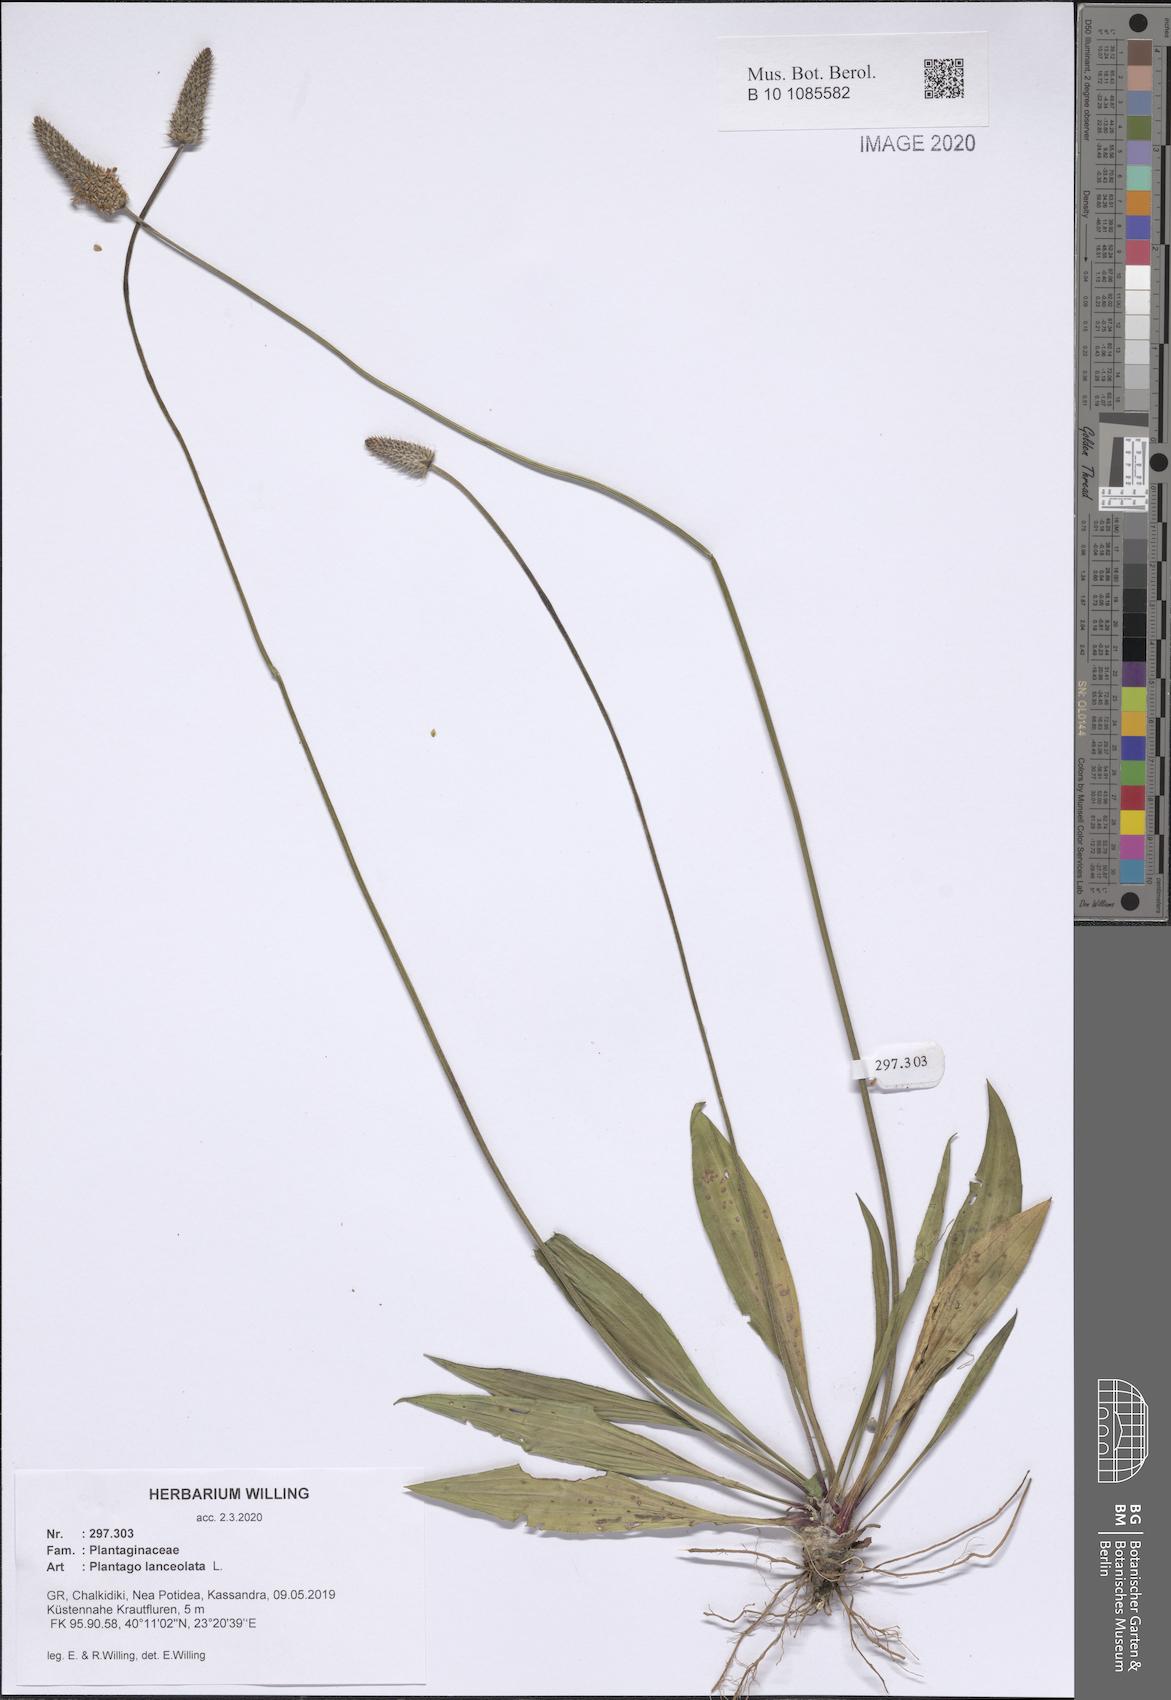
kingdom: Plantae
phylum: Tracheophyta
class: Magnoliopsida
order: Lamiales
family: Plantaginaceae
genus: Plantago
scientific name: Plantago lanceolata
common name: Ribwort plantain
